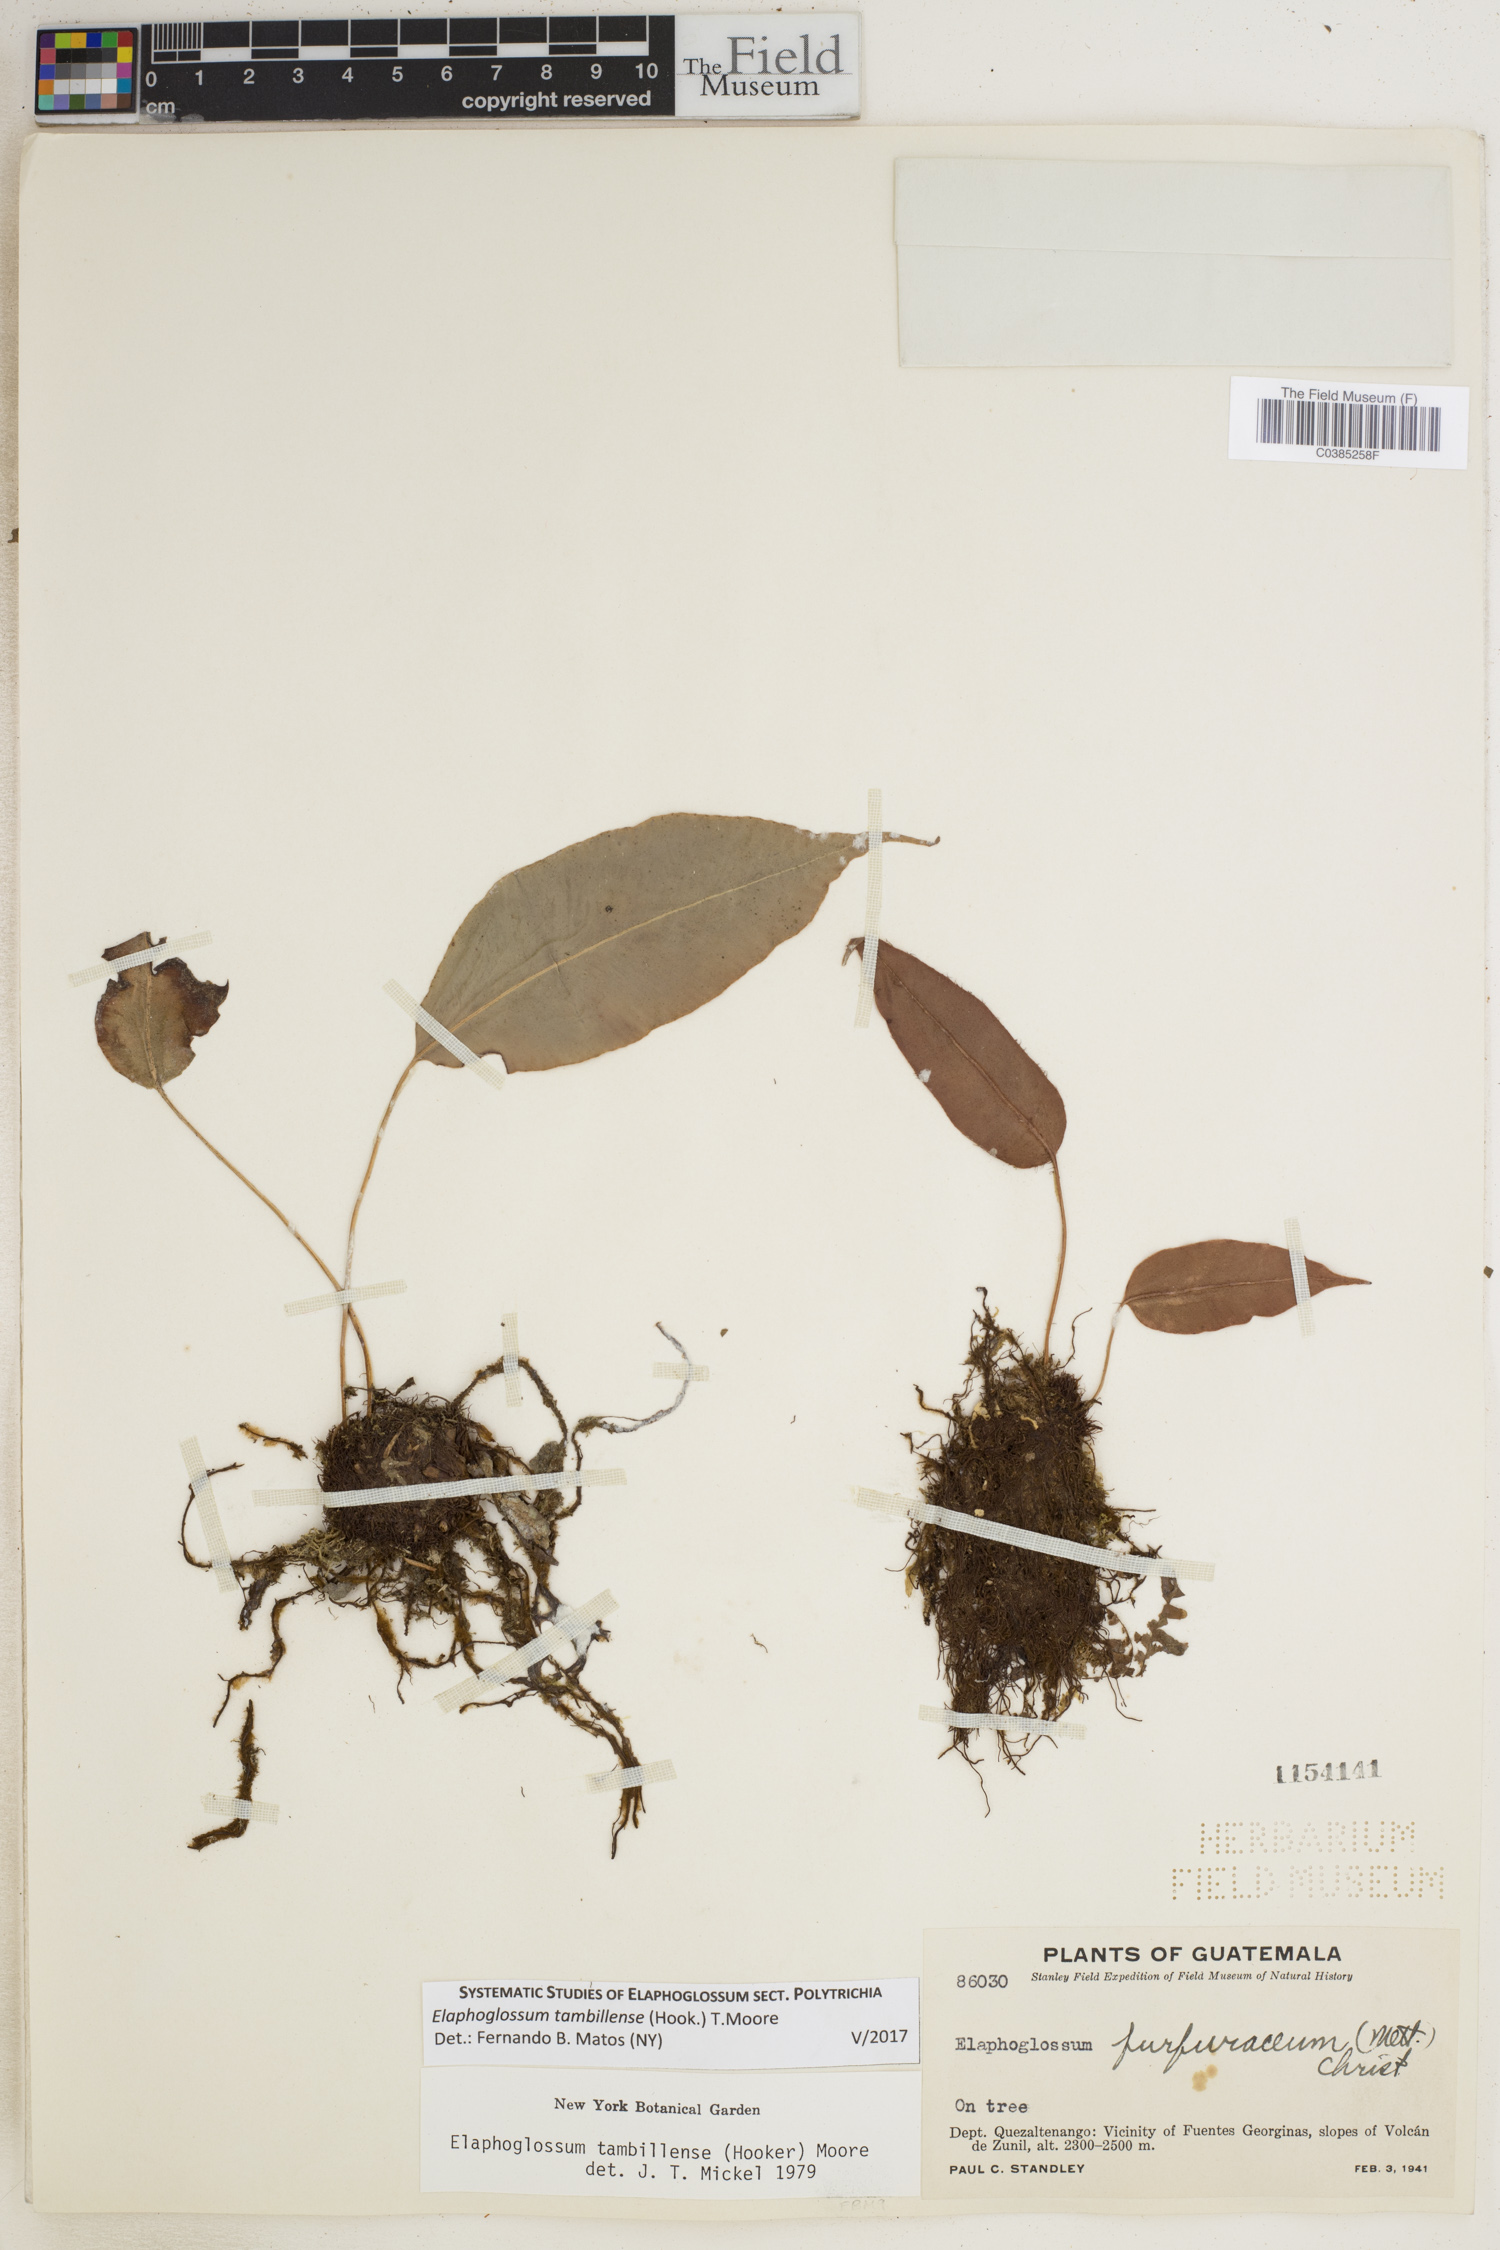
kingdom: Plantae
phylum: Tracheophyta
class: Polypodiopsida
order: Polypodiales
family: Dryopteridaceae
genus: Elaphoglossum
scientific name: Elaphoglossum tambillense
